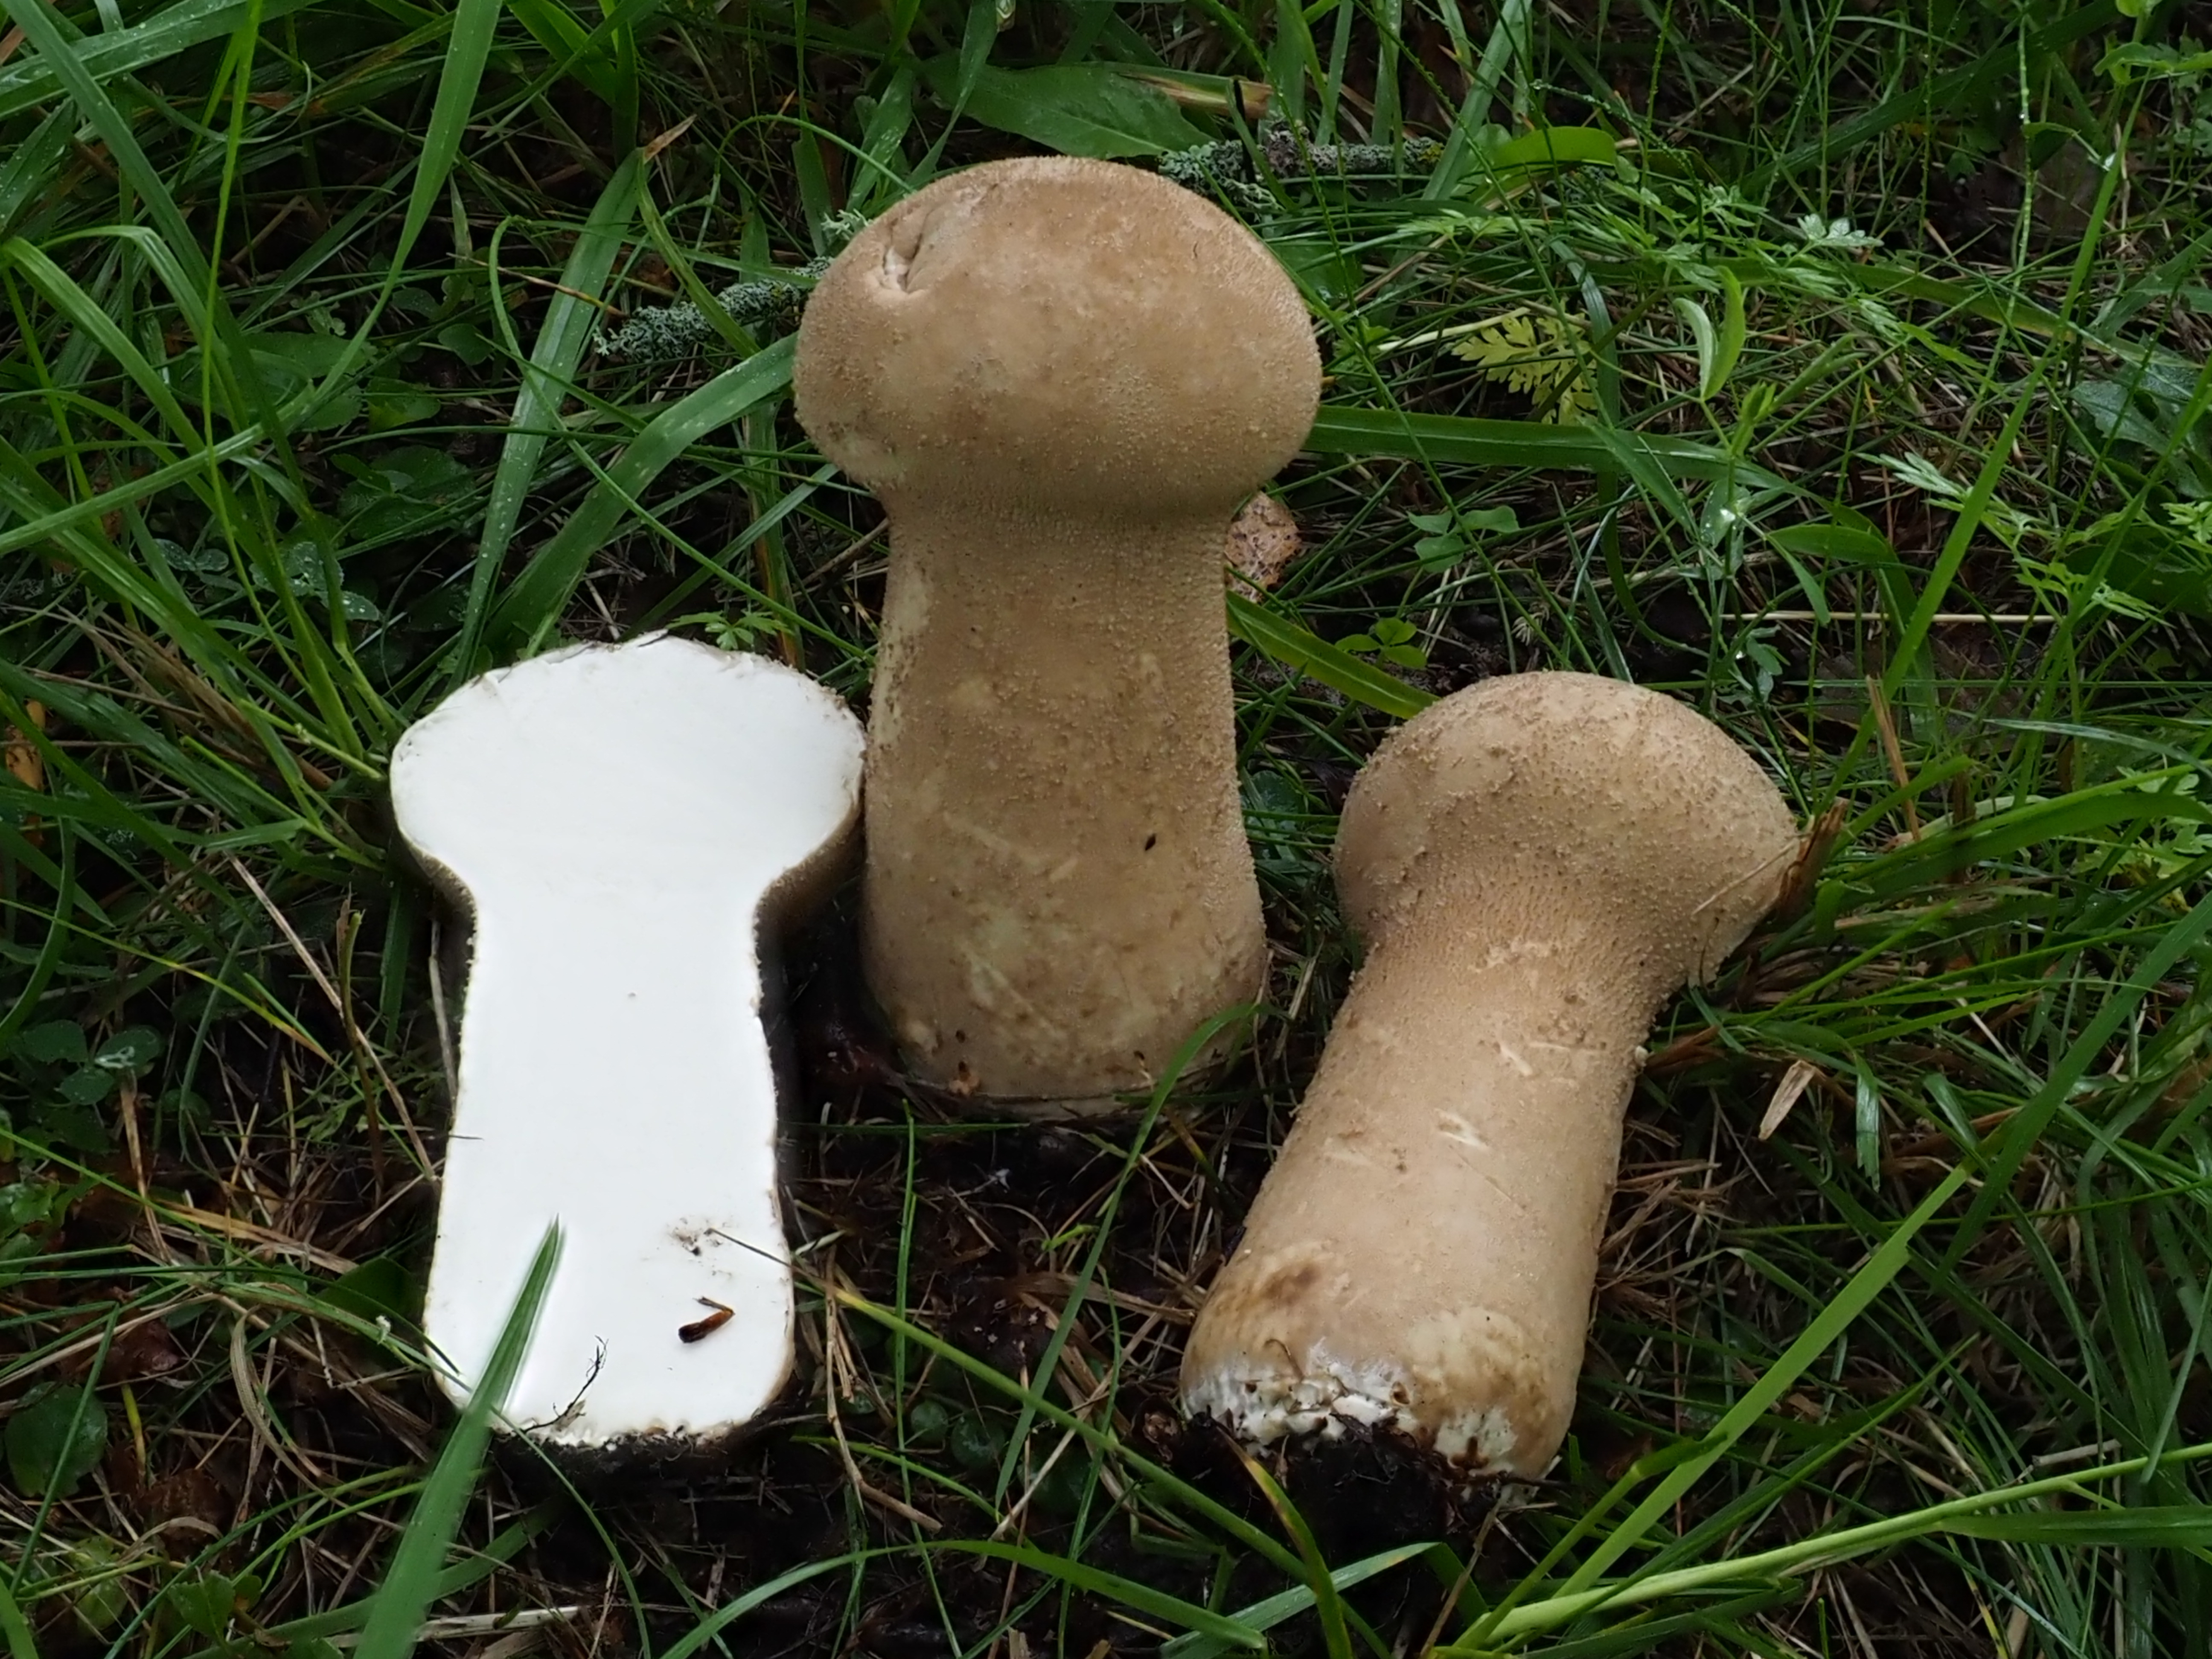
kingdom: Fungi
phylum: Basidiomycota
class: Agaricomycetes
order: Agaricales
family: Agaricaceae
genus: Lycoperdon
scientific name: Lycoperdon excipuliforme
